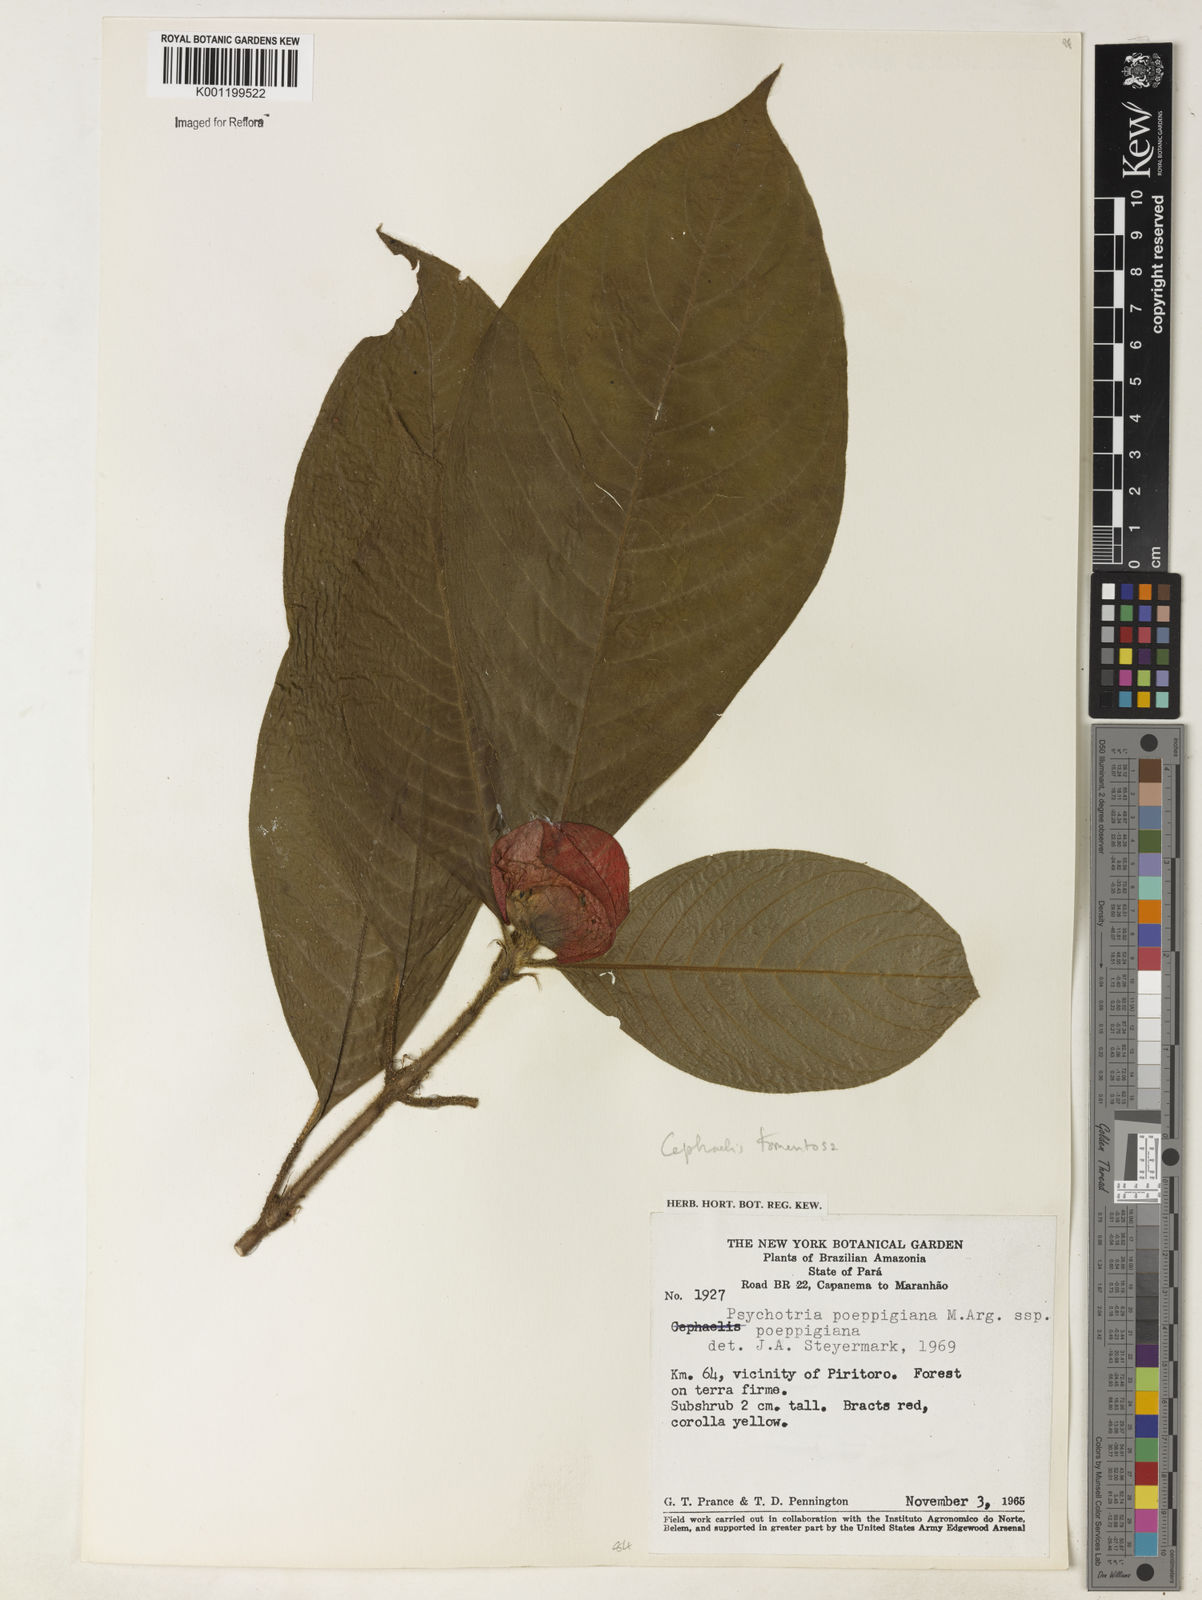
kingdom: Plantae
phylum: Tracheophyta
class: Magnoliopsida
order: Gentianales
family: Rubiaceae
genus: Psychotria
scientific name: Psychotria
